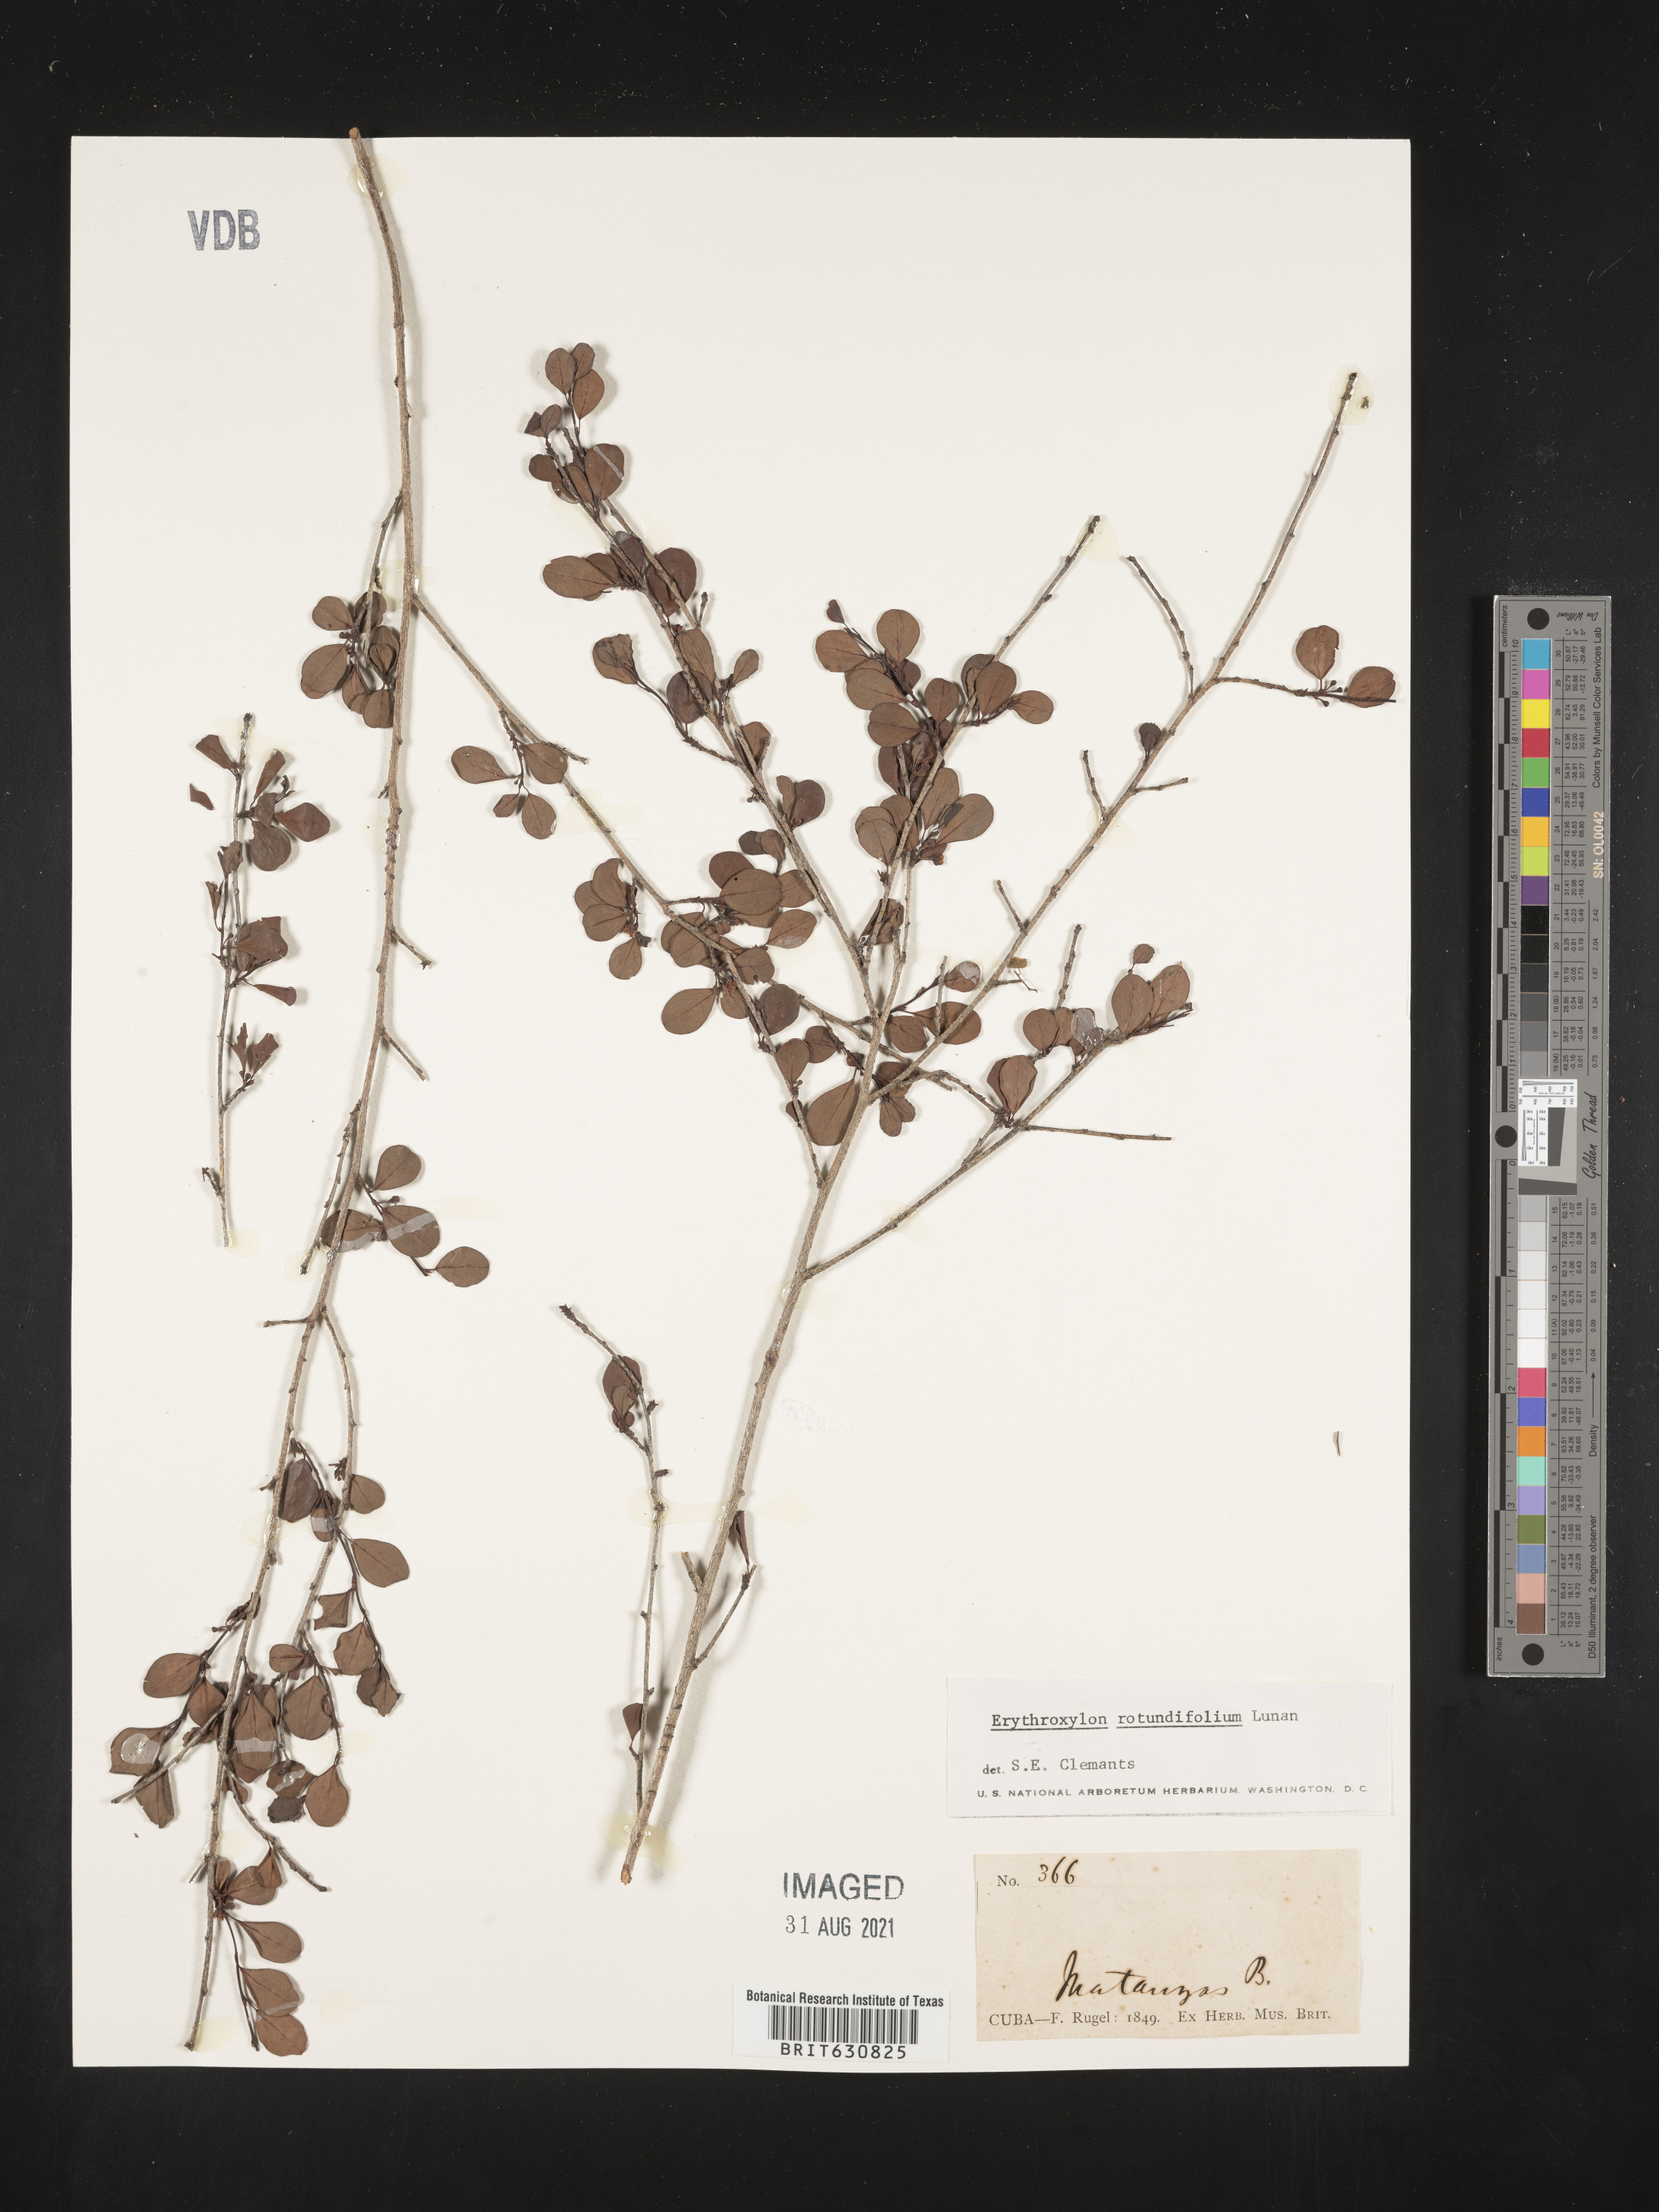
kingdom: Plantae
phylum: Tracheophyta
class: Magnoliopsida
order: Malpighiales
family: Erythroxylaceae
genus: Erythroxylum
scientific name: Erythroxylum
